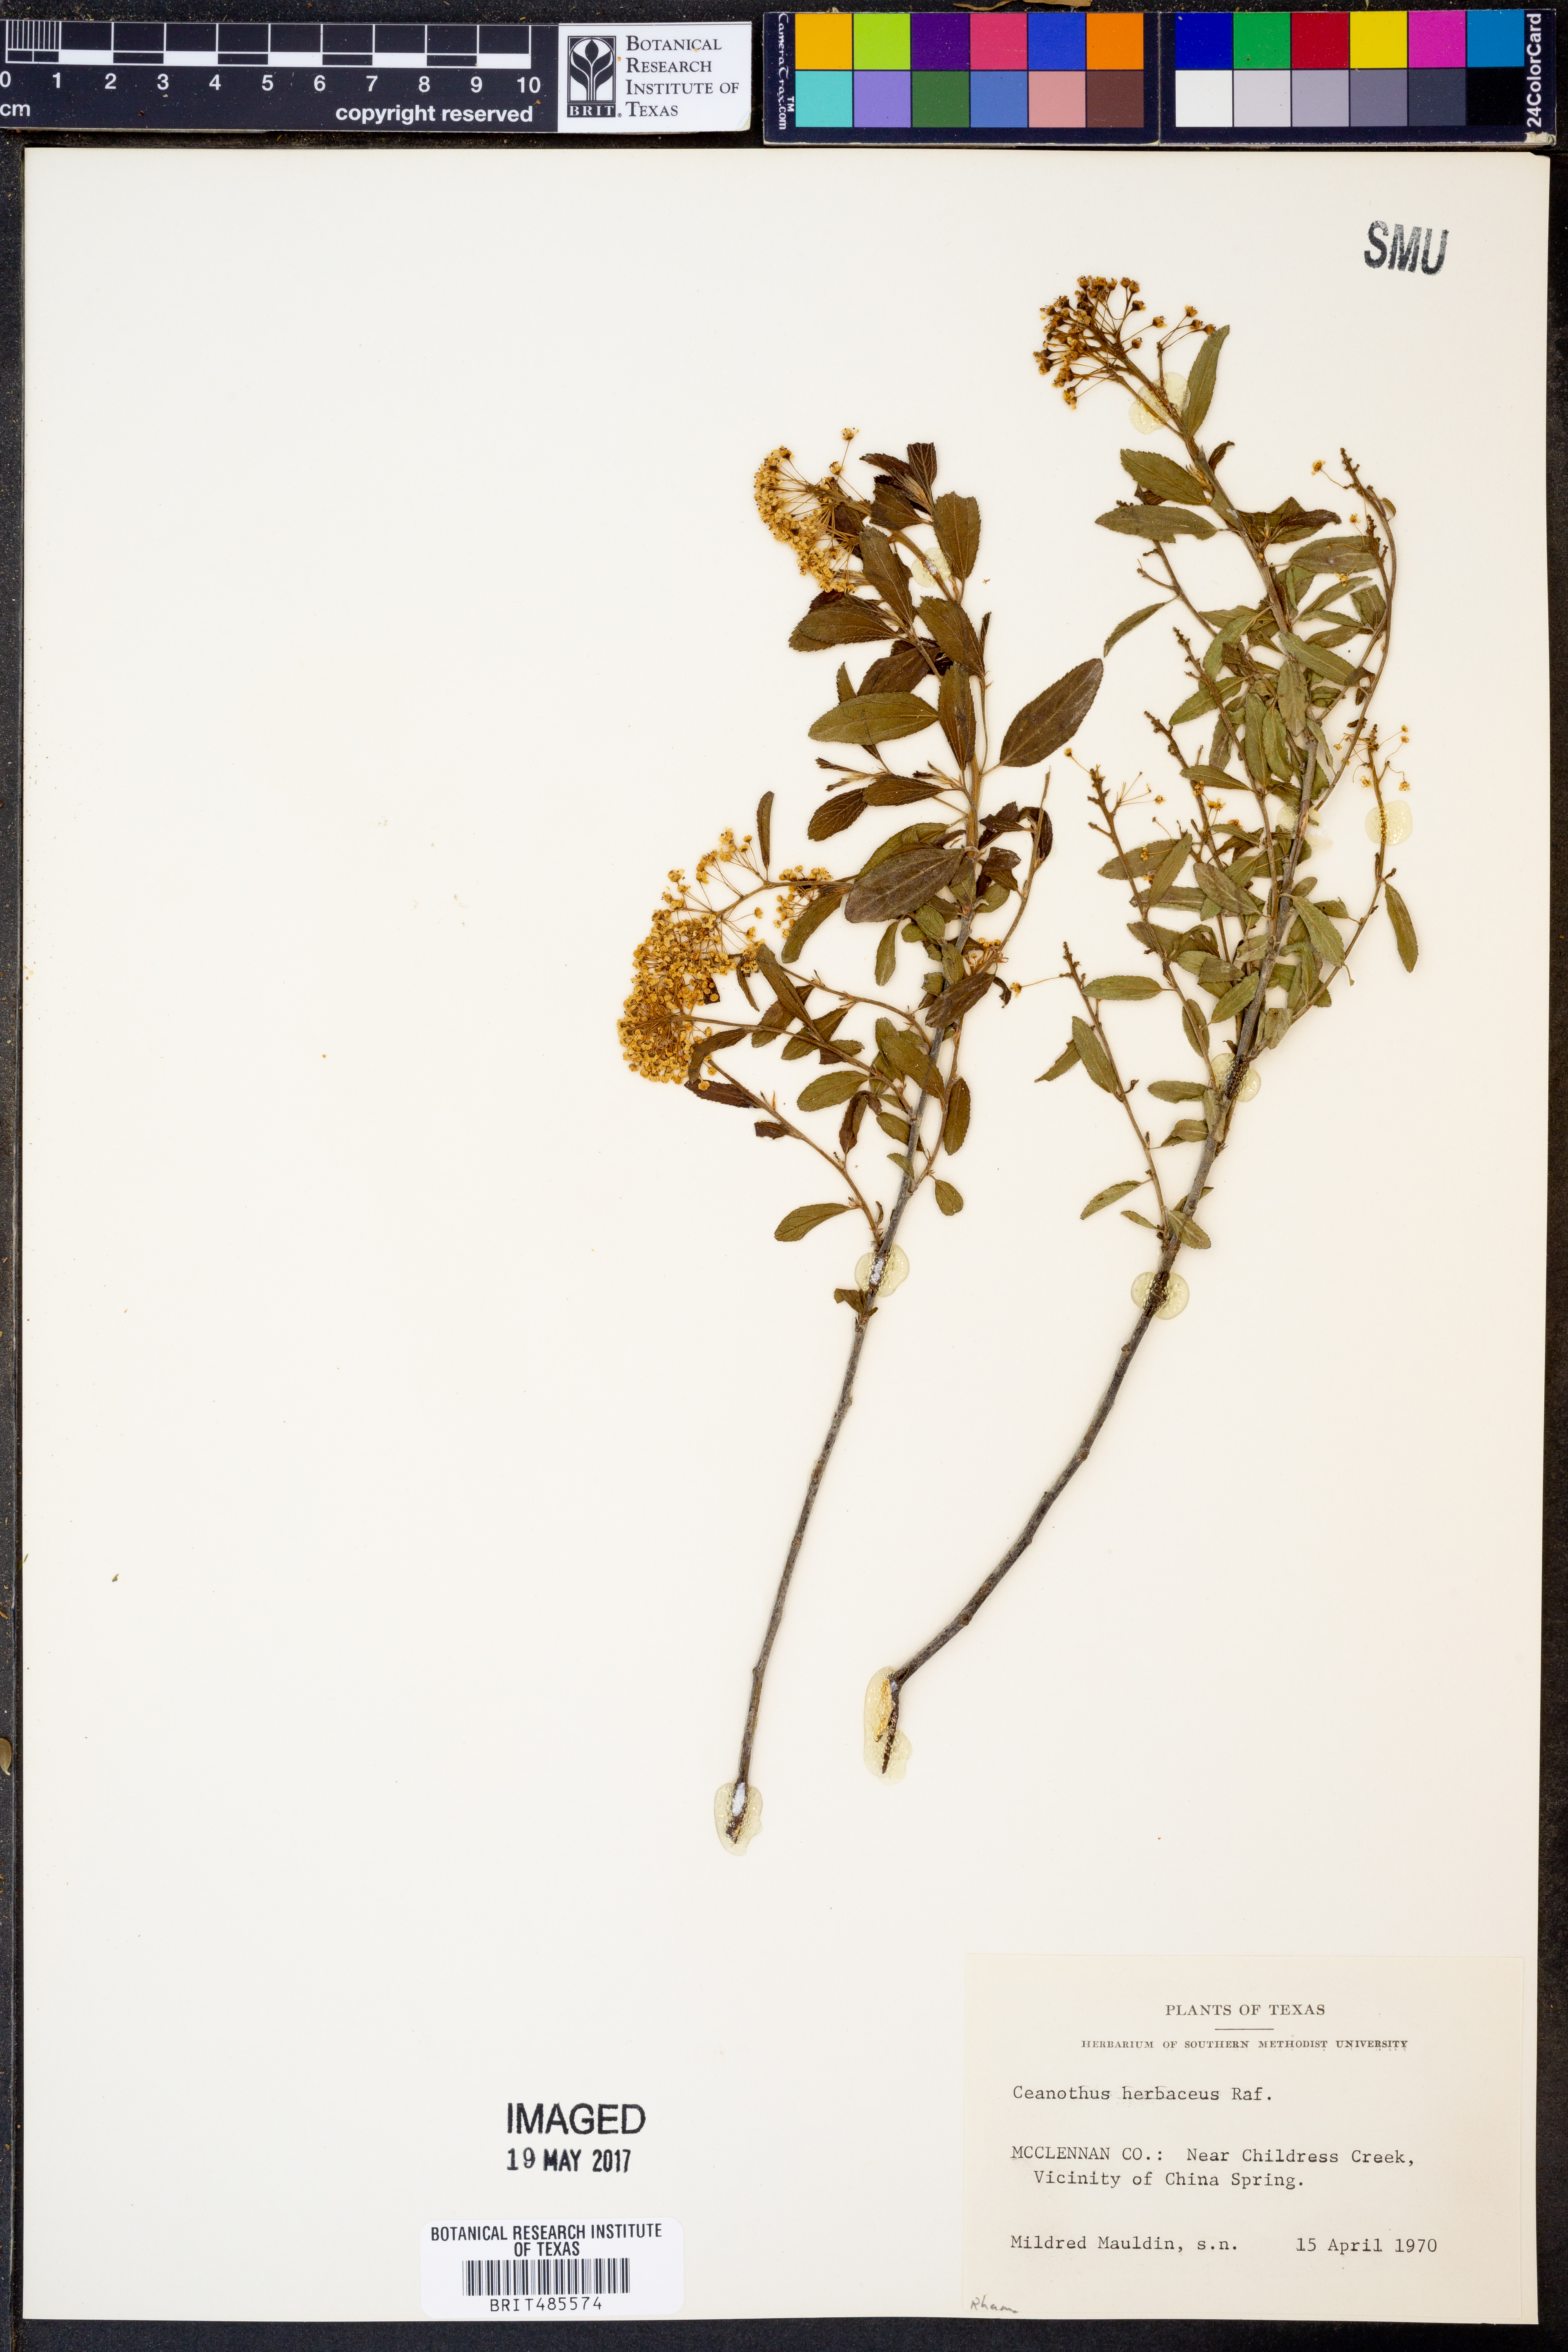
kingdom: Plantae
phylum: Tracheophyta
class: Magnoliopsida
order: Rosales
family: Rhamnaceae
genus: Ceanothus
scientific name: Ceanothus herbaceus
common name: Inland ceanothus
